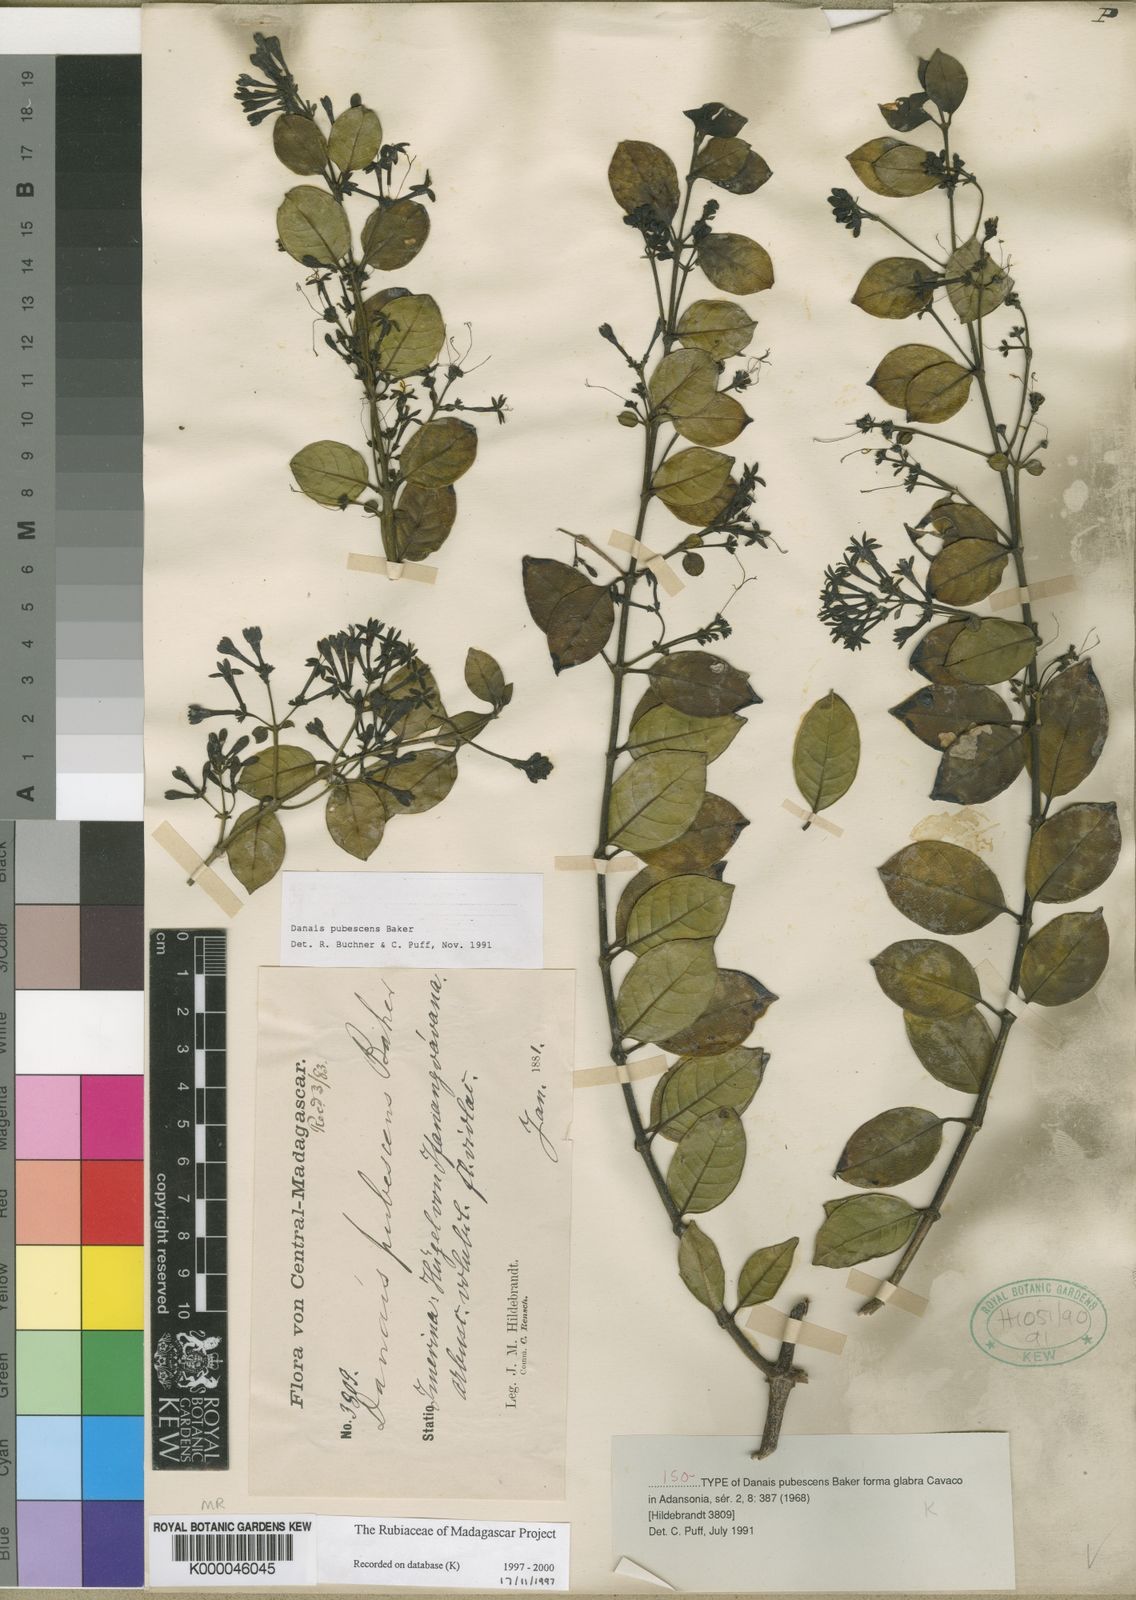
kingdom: Plantae
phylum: Tracheophyta
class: Magnoliopsida
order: Gentianales
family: Rubiaceae
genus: Danais
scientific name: Danais pubescens
